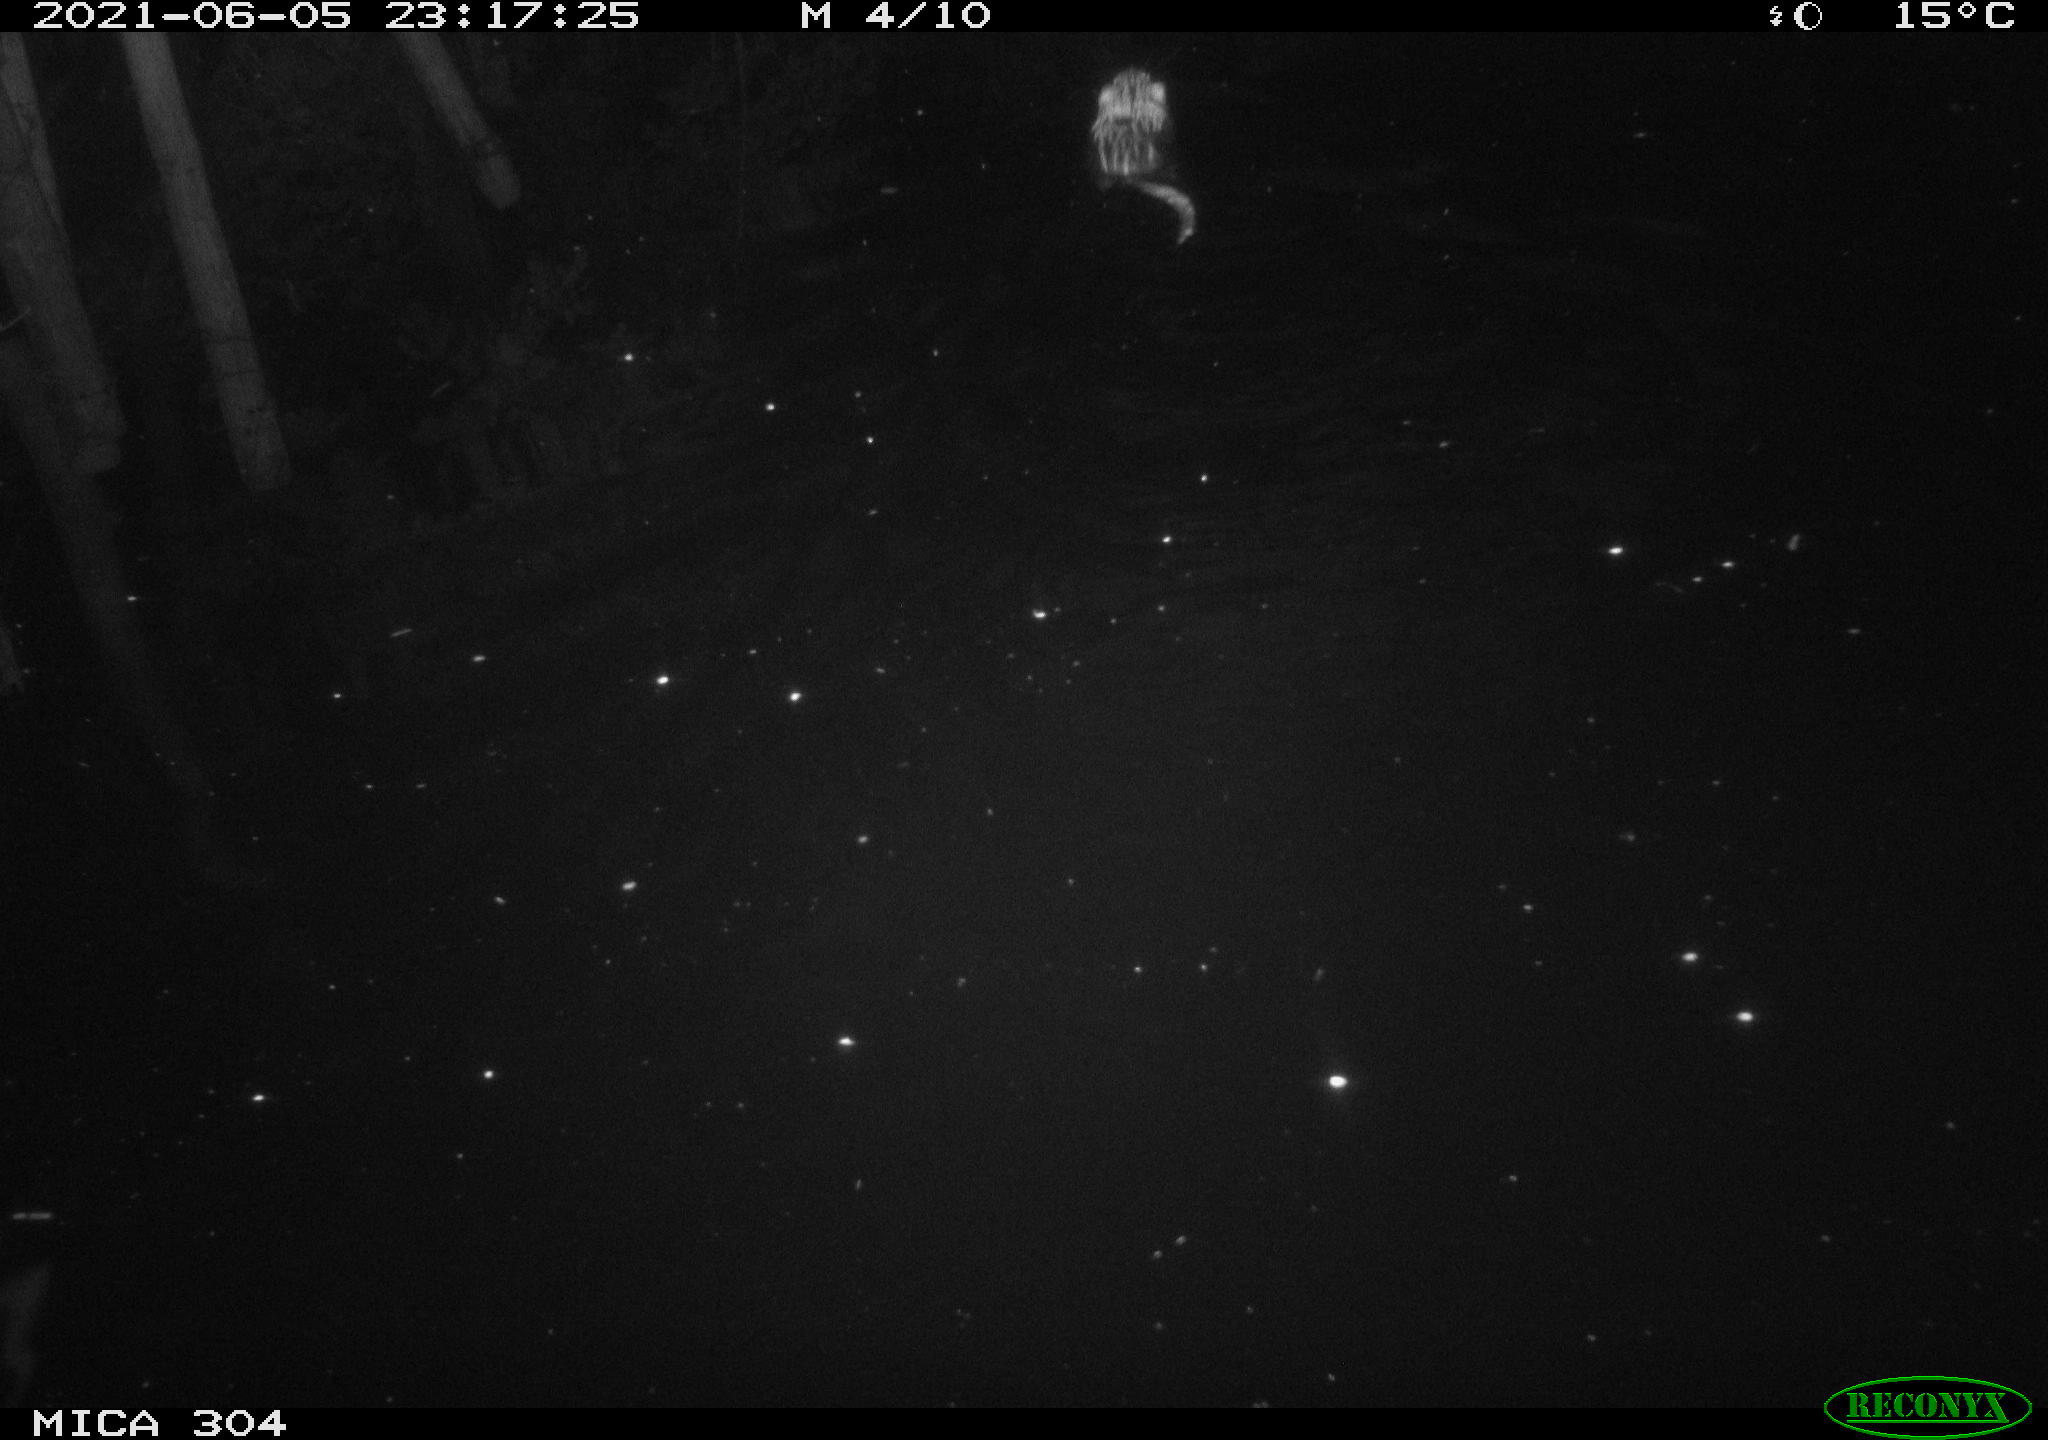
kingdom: Animalia
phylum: Chordata
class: Mammalia
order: Rodentia
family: Cricetidae
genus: Ondatra
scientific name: Ondatra zibethicus
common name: Muskrat
